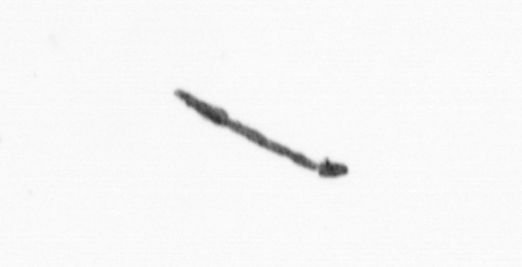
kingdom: Bacteria
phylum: Cyanobacteria
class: Cyanobacteriia
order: Cyanobacteriales
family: Microcoleaceae
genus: Trichodesmium
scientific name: Trichodesmium
